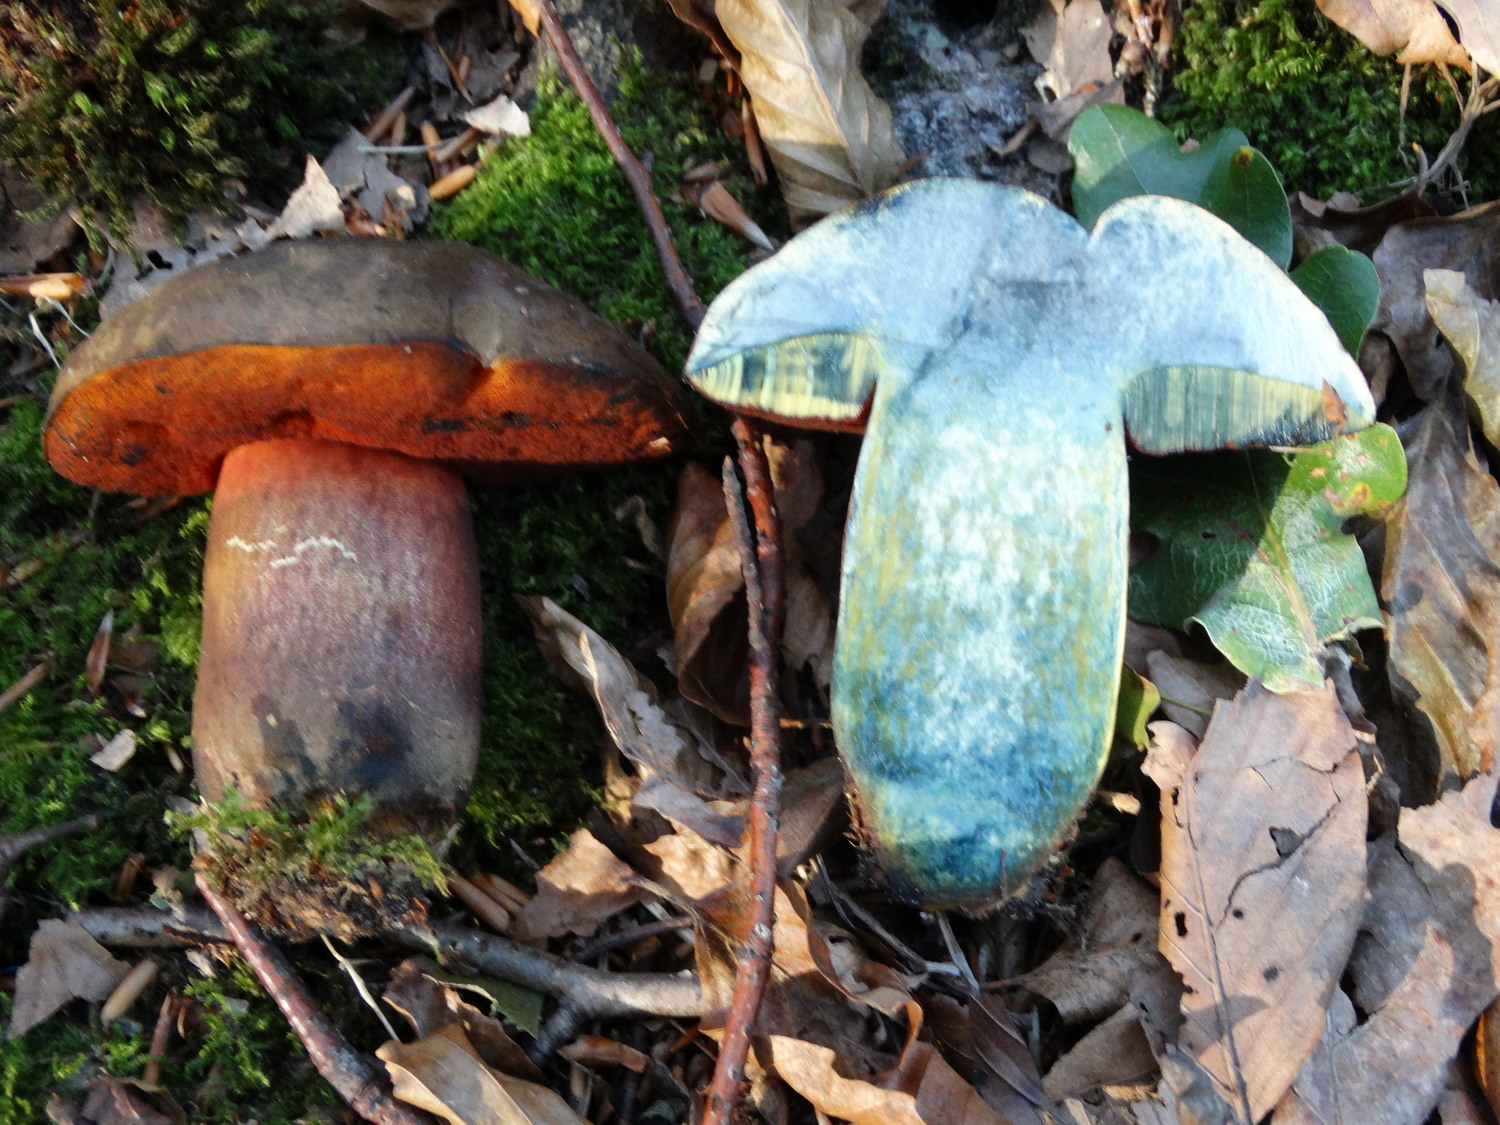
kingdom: Fungi
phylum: Basidiomycota
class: Agaricomycetes
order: Boletales
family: Boletaceae
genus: Neoboletus
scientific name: Neoboletus erythropus
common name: punktstokket indigorørhat
